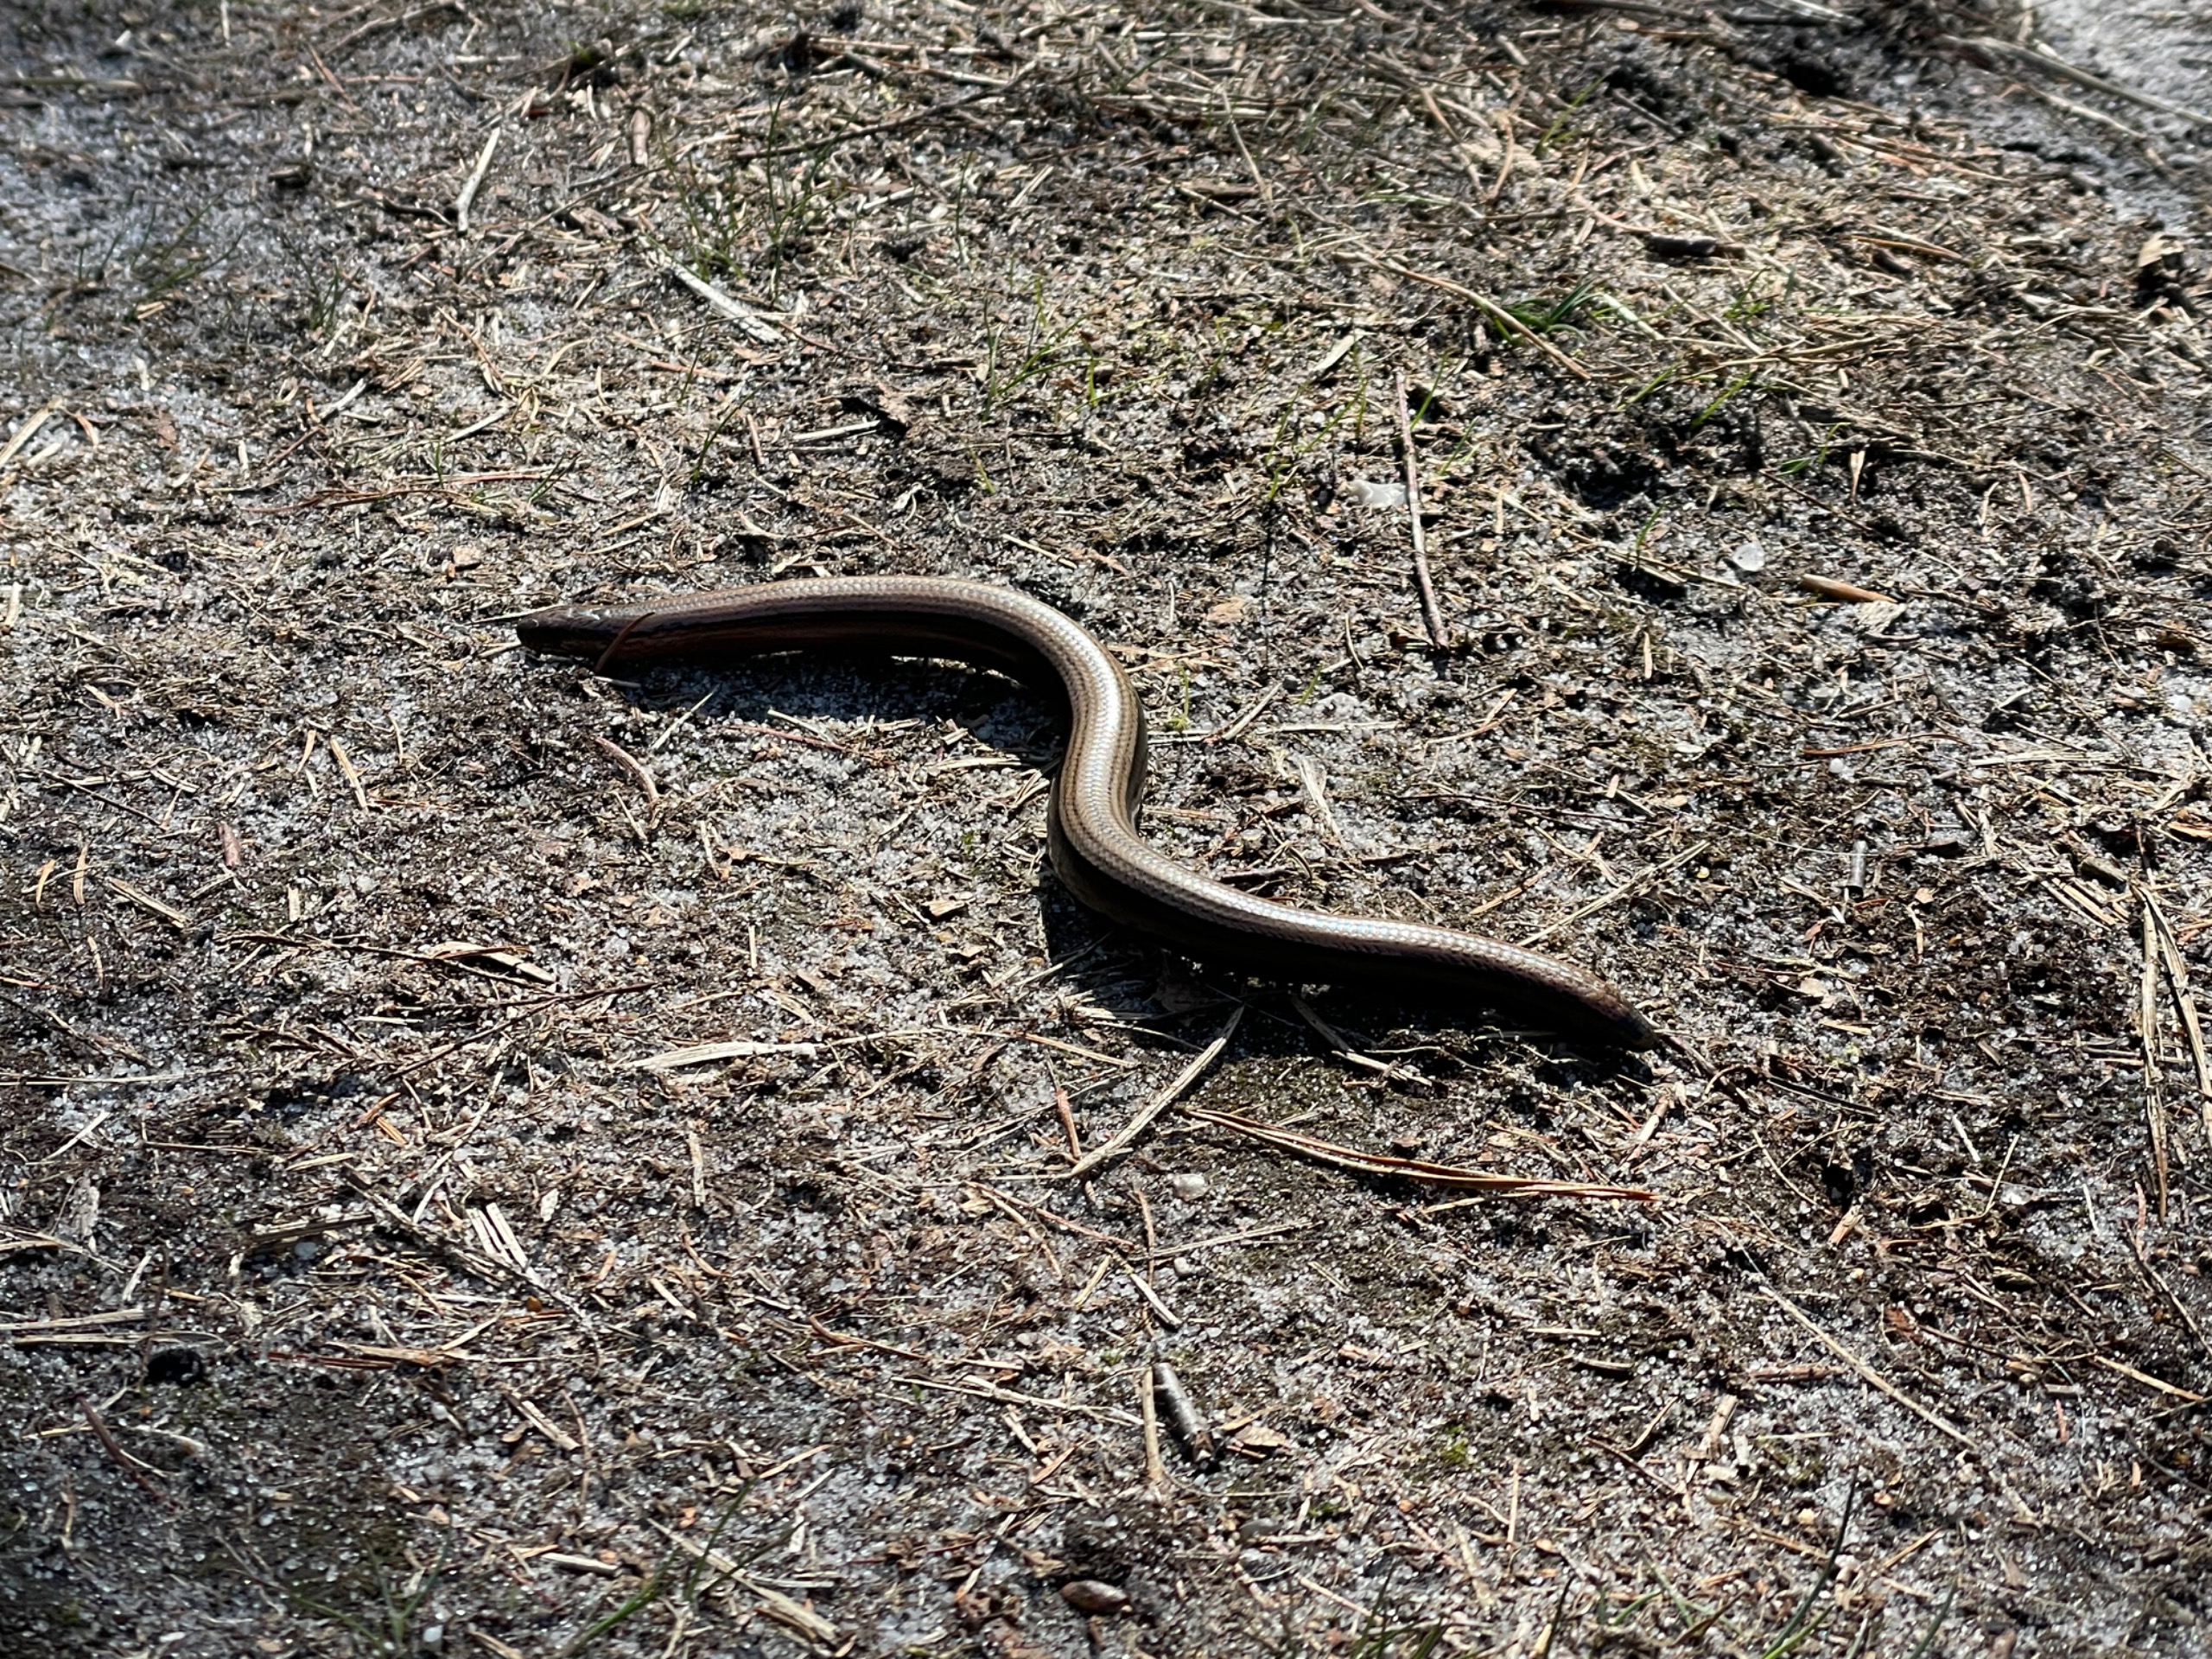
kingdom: Animalia
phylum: Chordata
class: Squamata
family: Anguidae
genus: Anguis
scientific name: Anguis fragilis
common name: Stålorm
